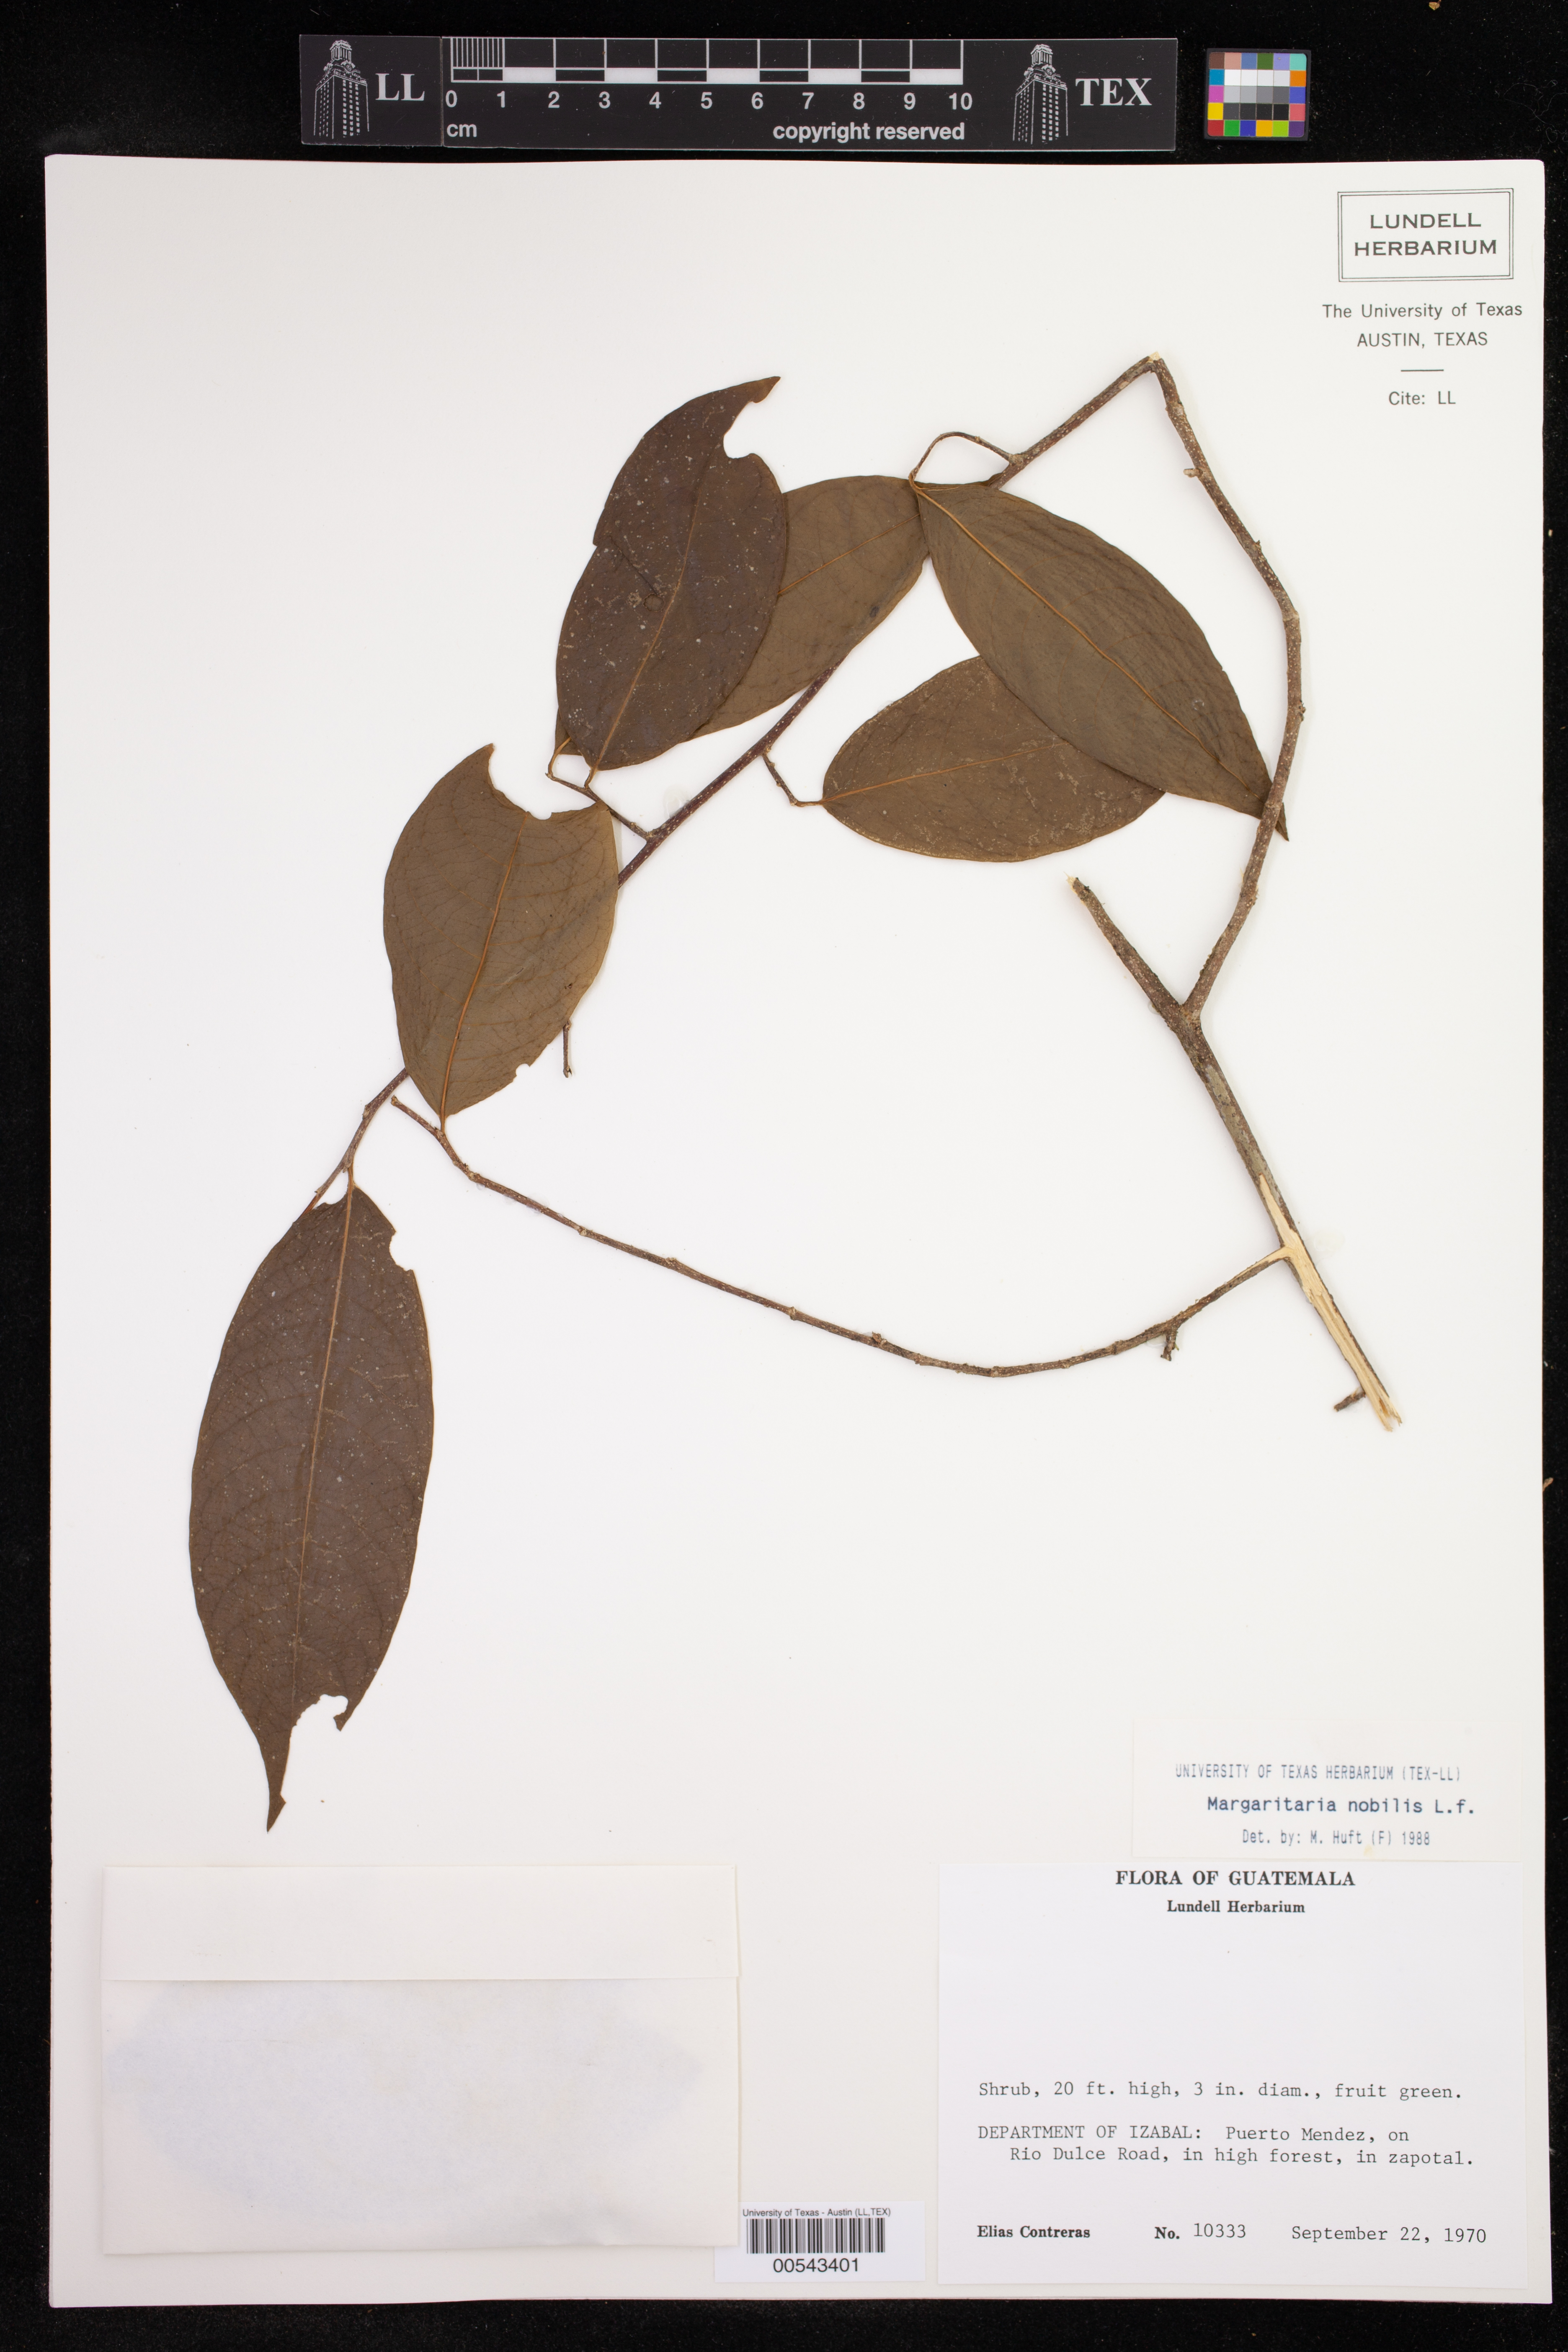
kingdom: Plantae
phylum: Tracheophyta
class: Magnoliopsida
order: Malpighiales
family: Phyllanthaceae
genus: Margaritaria
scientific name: Margaritaria nobilis
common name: Goose berry
